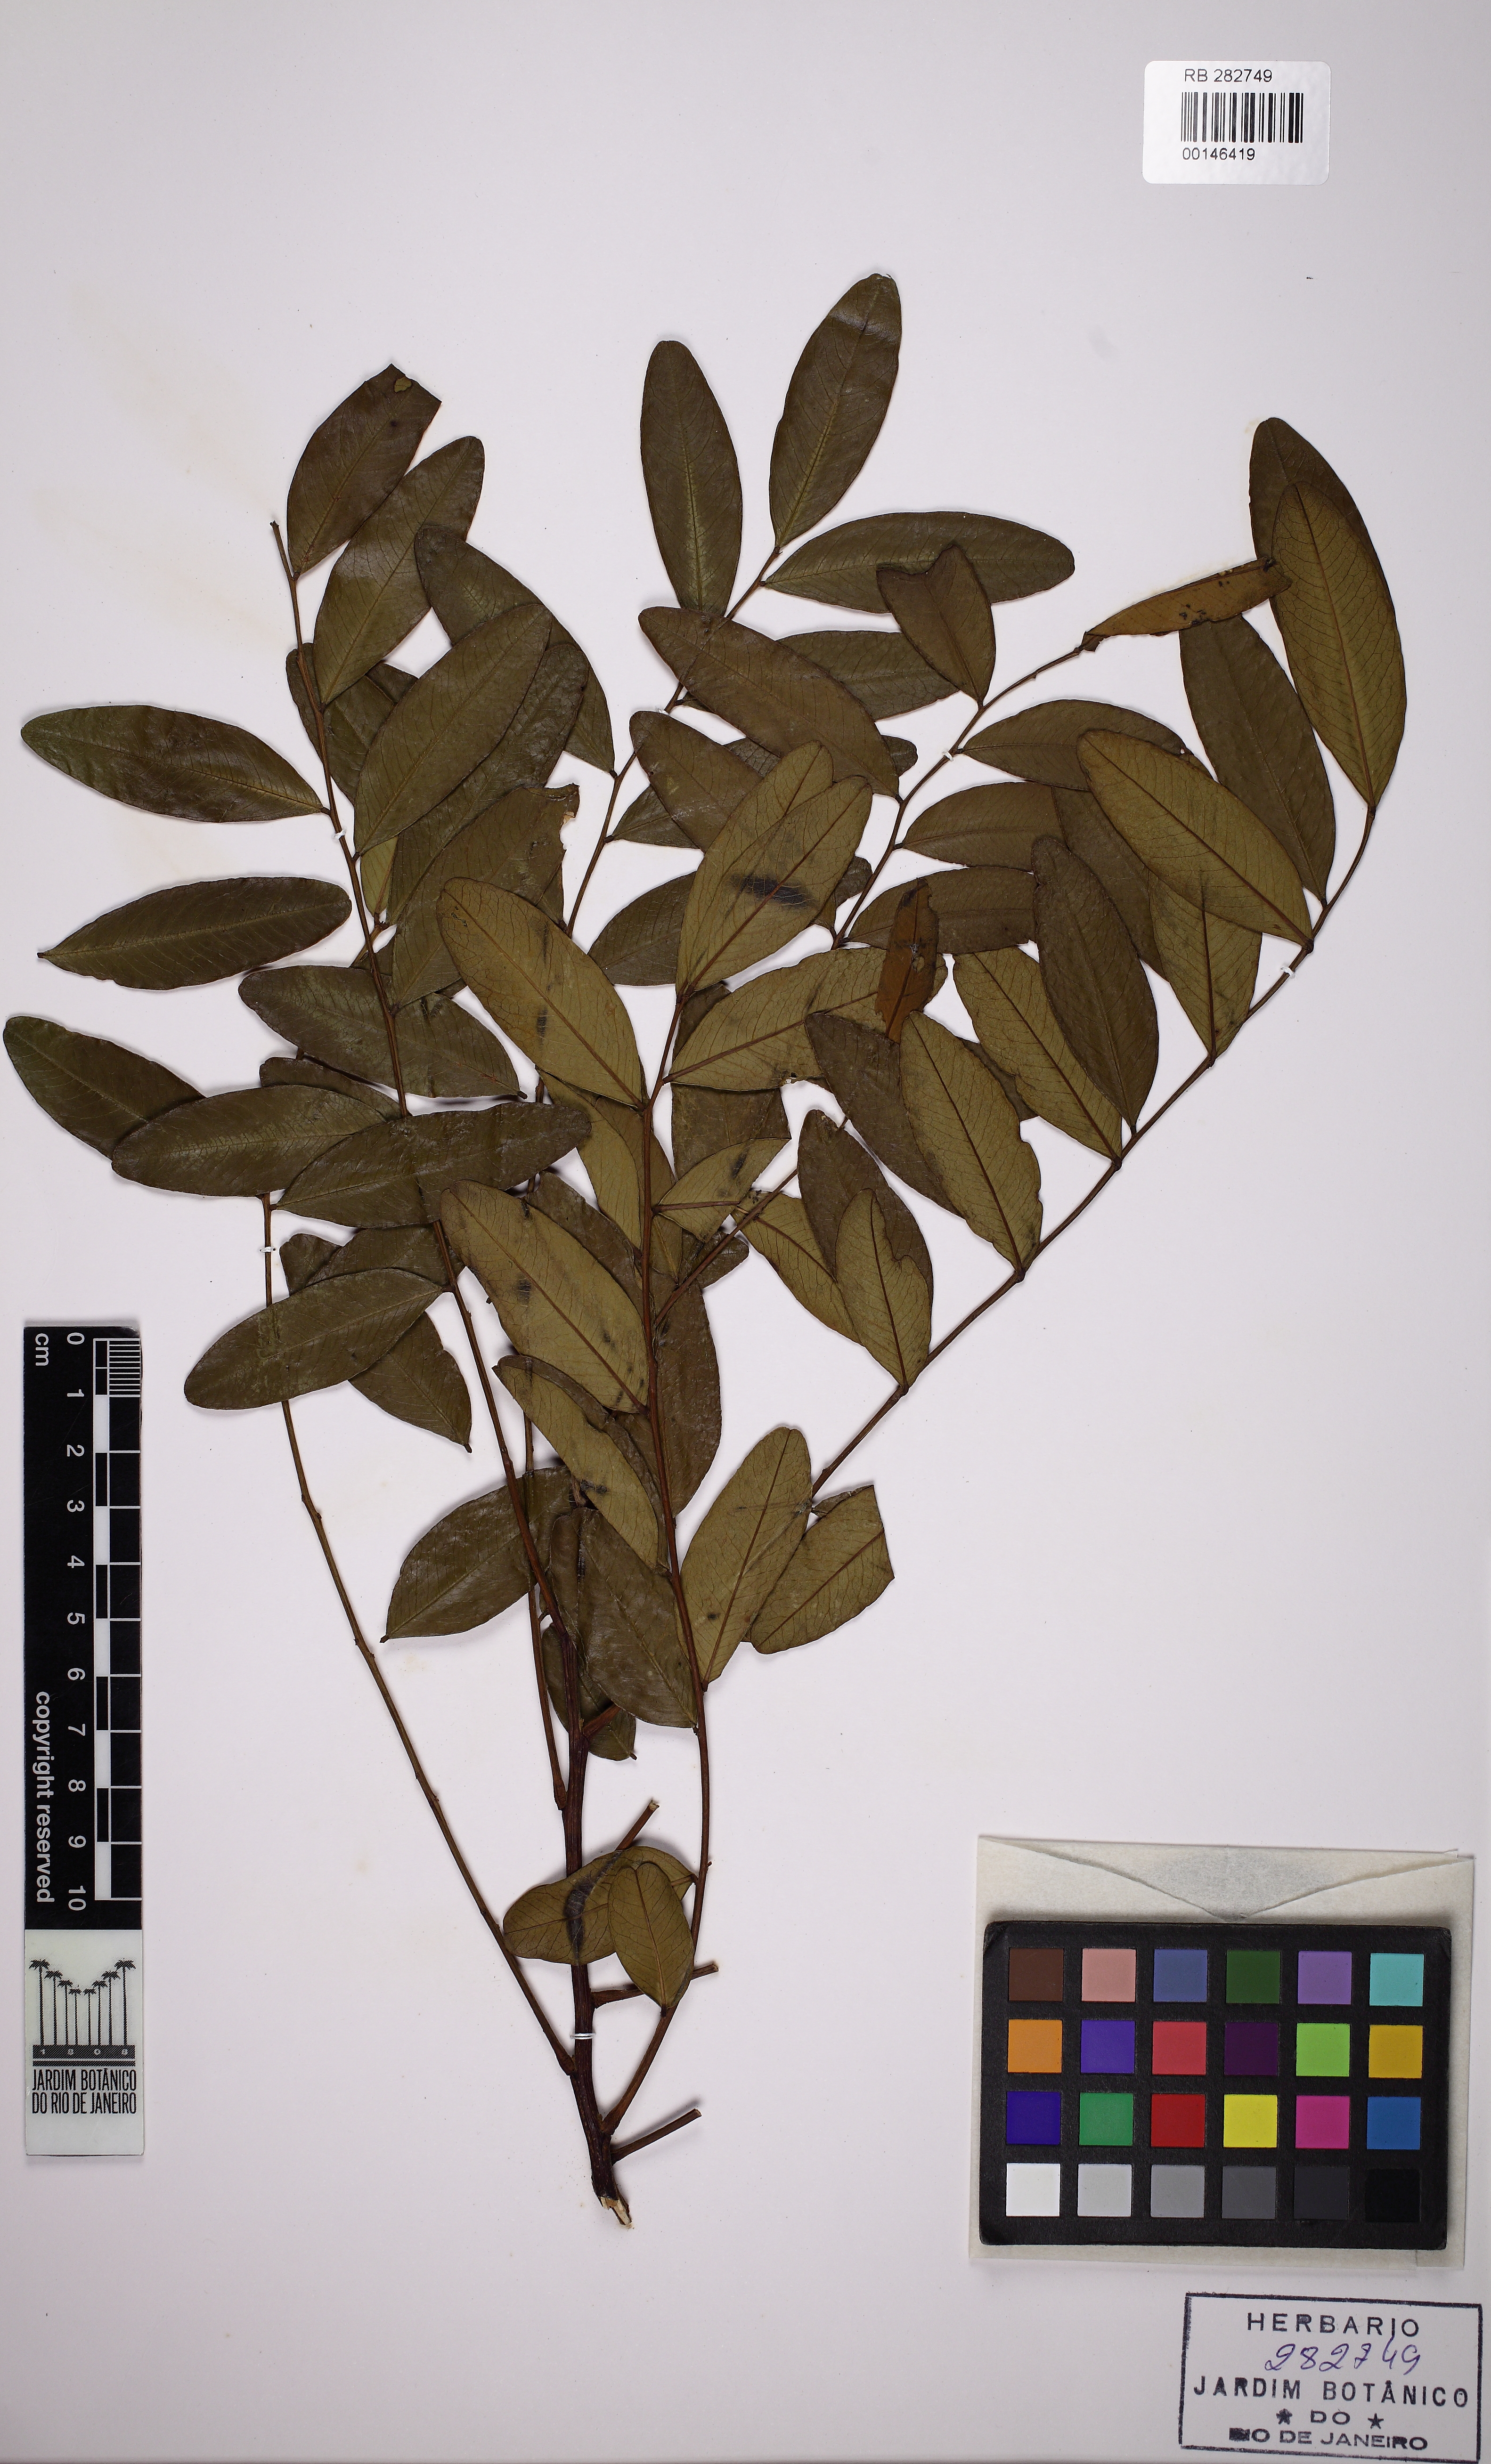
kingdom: Plantae
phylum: Tracheophyta
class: Magnoliopsida
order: Fabales
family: Fabaceae
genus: Pterogyne
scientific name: Pterogyne nitens
